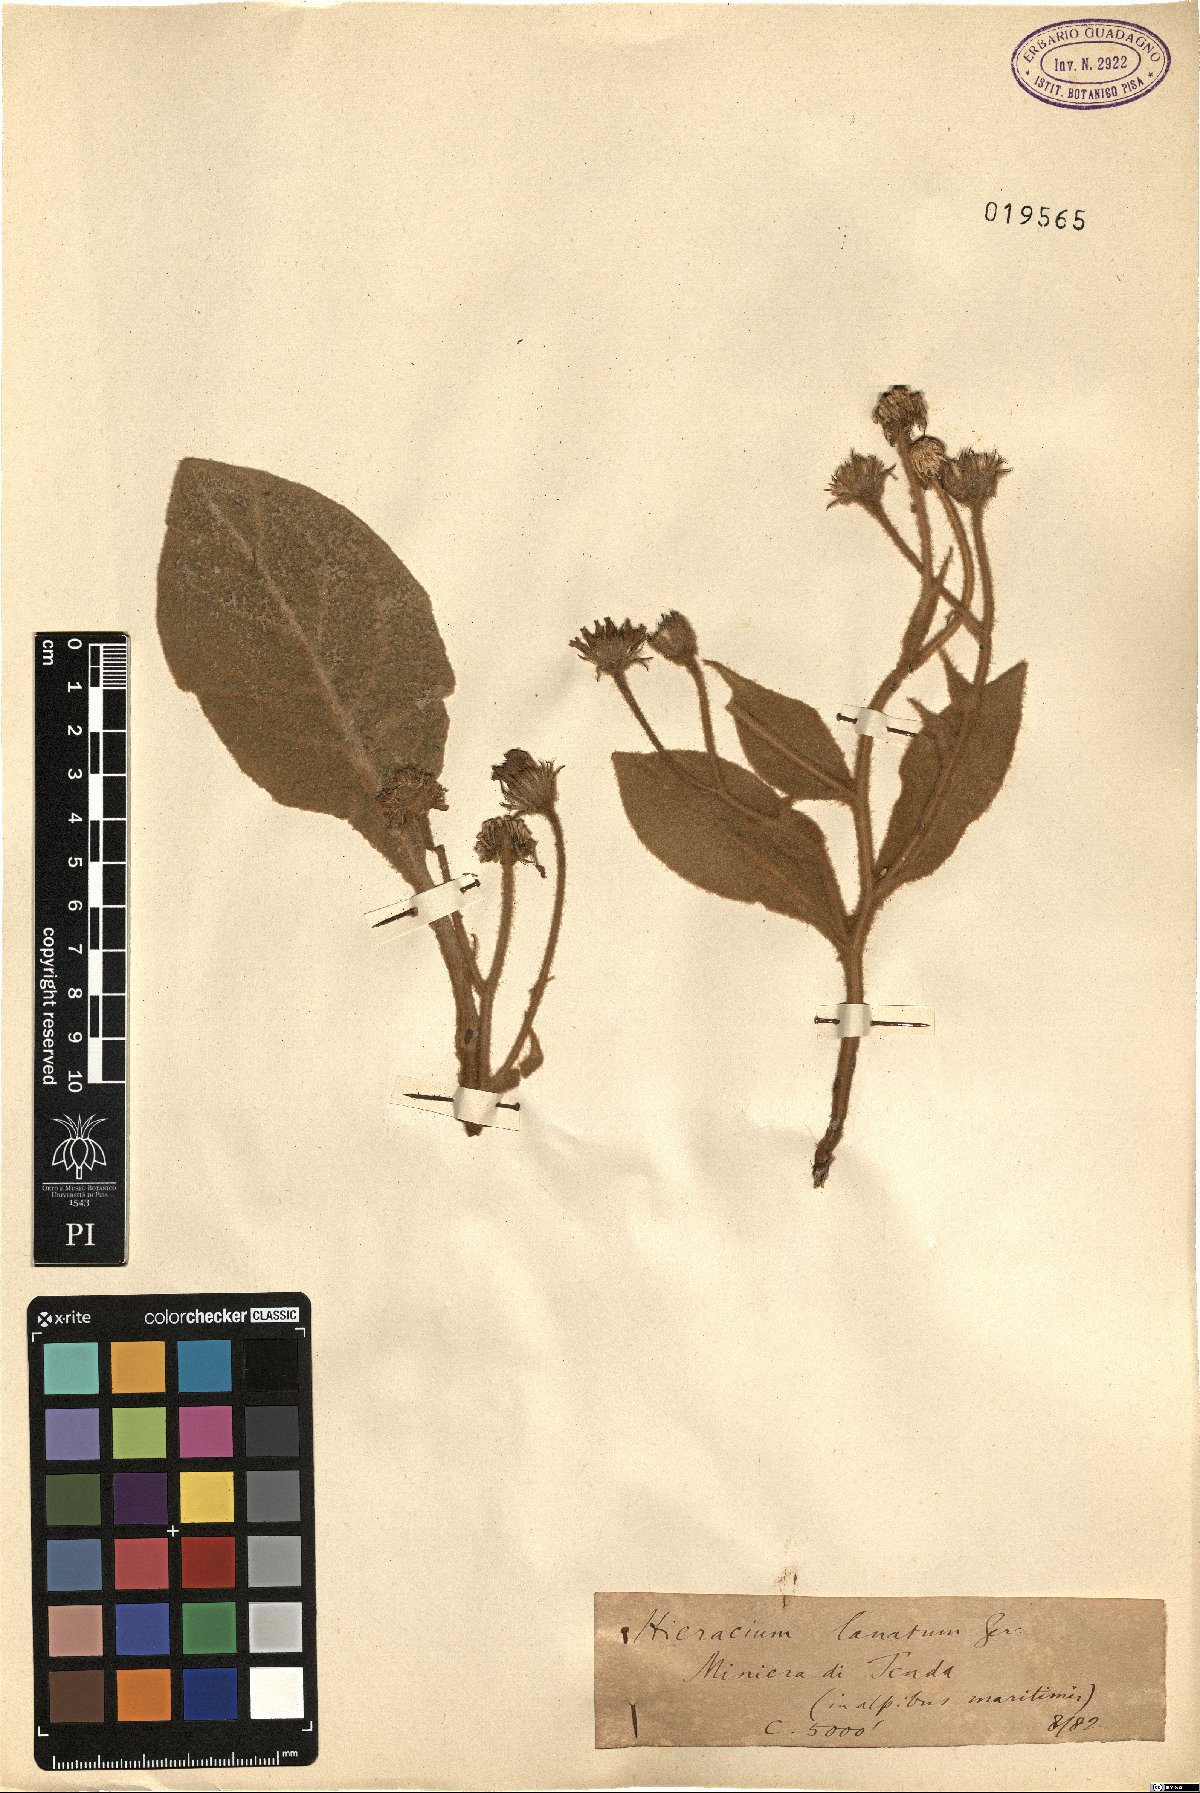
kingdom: Plantae
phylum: Tracheophyta
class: Magnoliopsida
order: Asterales
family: Asteraceae
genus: Hieracium
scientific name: Hieracium tomentosum
